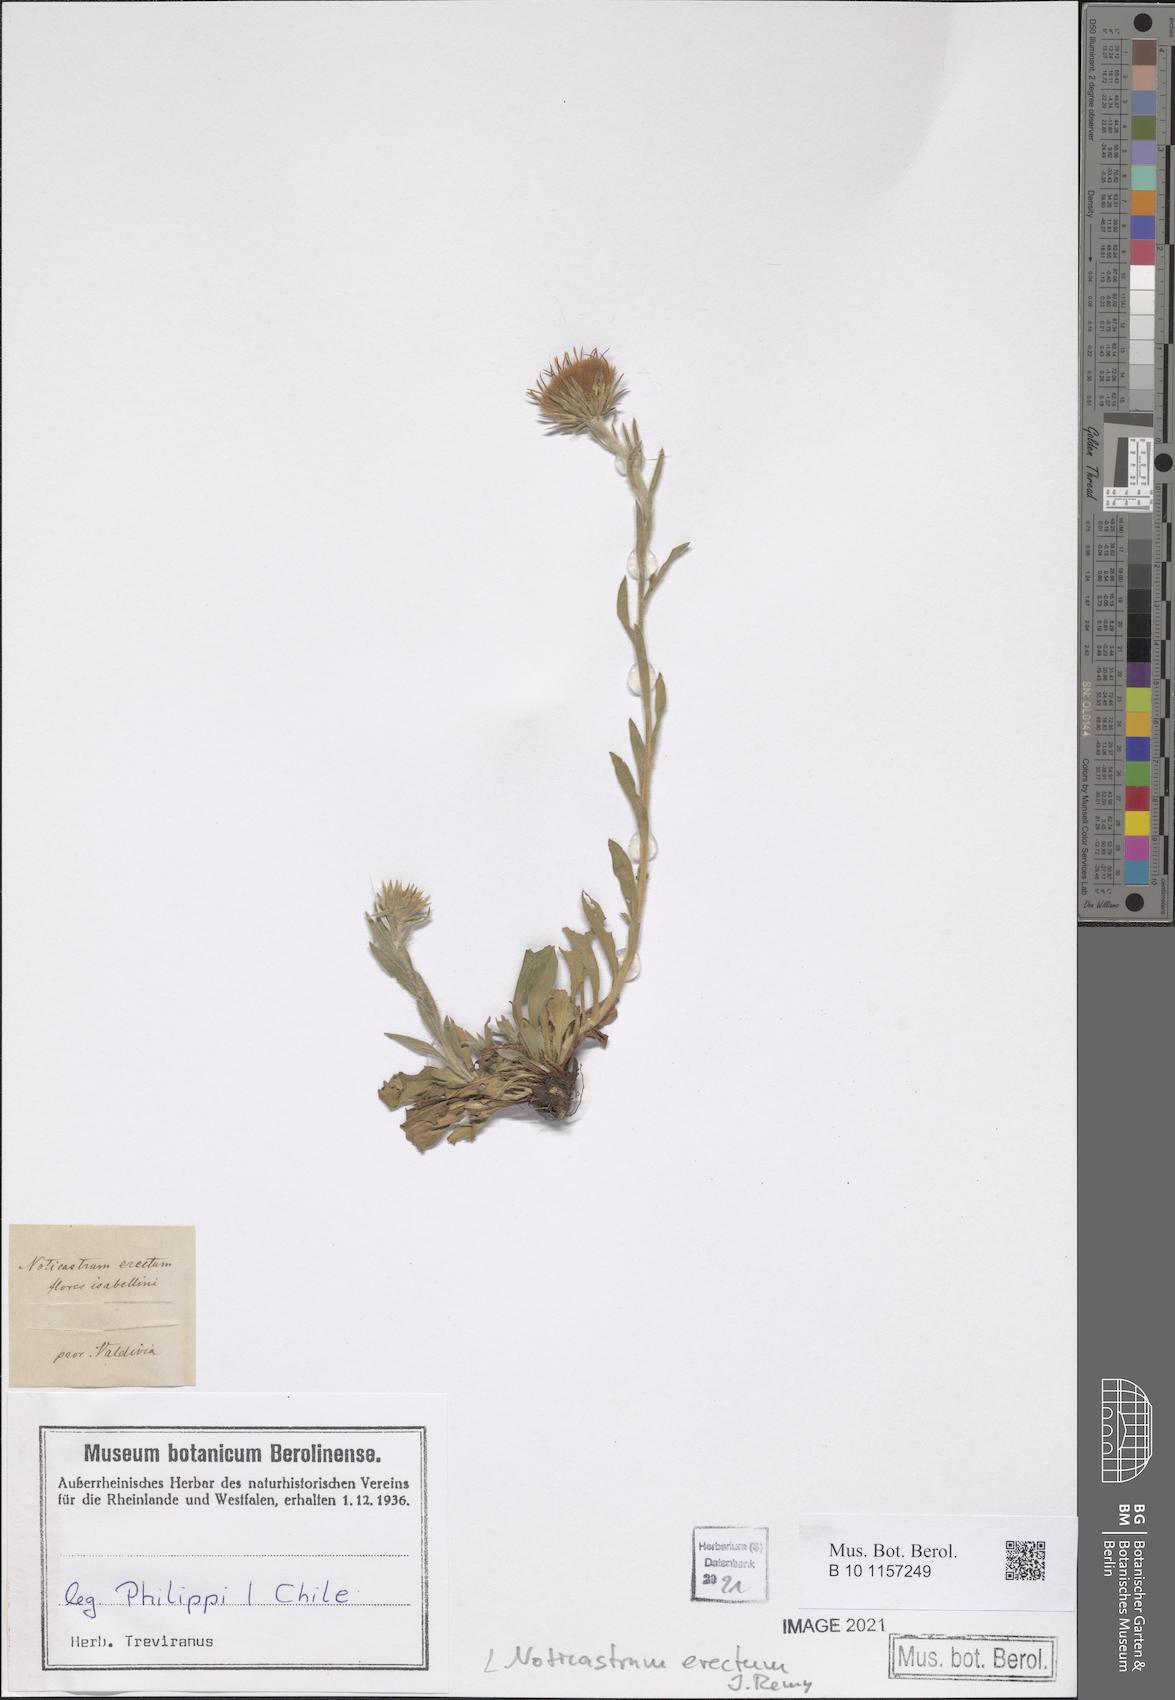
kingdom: Plantae
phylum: Tracheophyta
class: Magnoliopsida
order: Asterales
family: Asteraceae
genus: Noticastrum
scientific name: Noticastrum erectum
